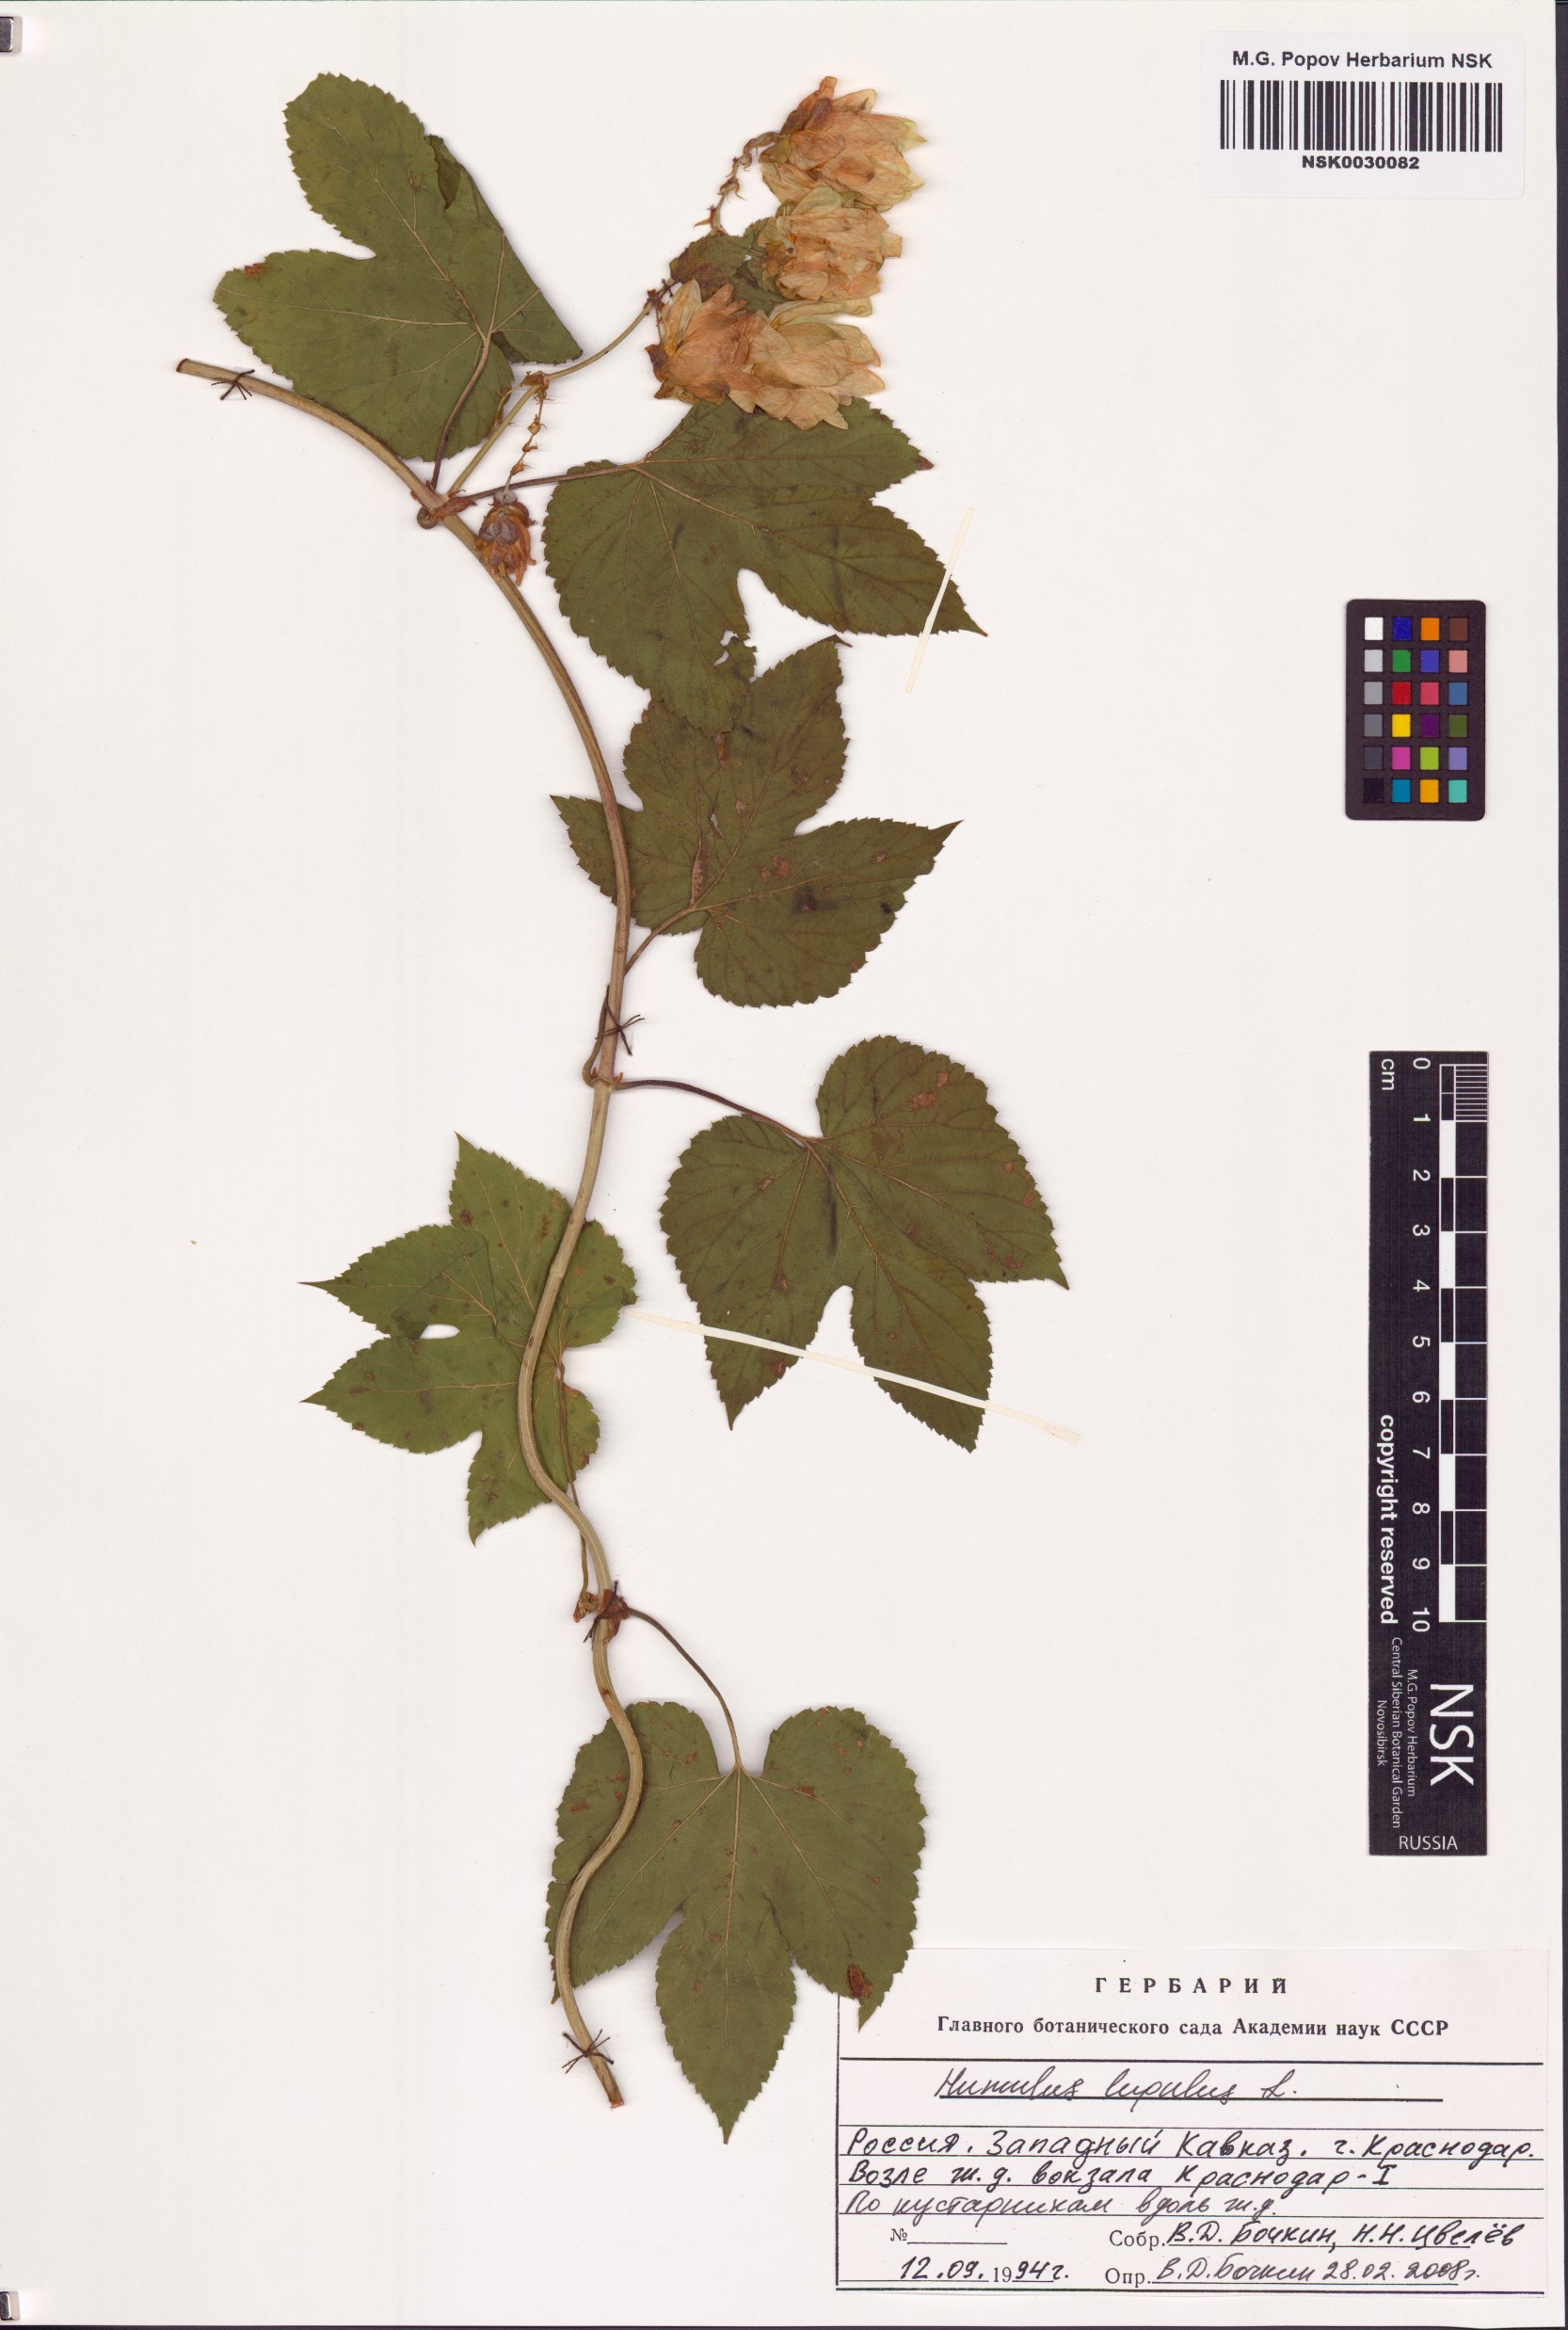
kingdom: Plantae
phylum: Tracheophyta
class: Magnoliopsida
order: Rosales
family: Cannabaceae
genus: Humulus
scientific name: Humulus lupulus
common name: Hop
